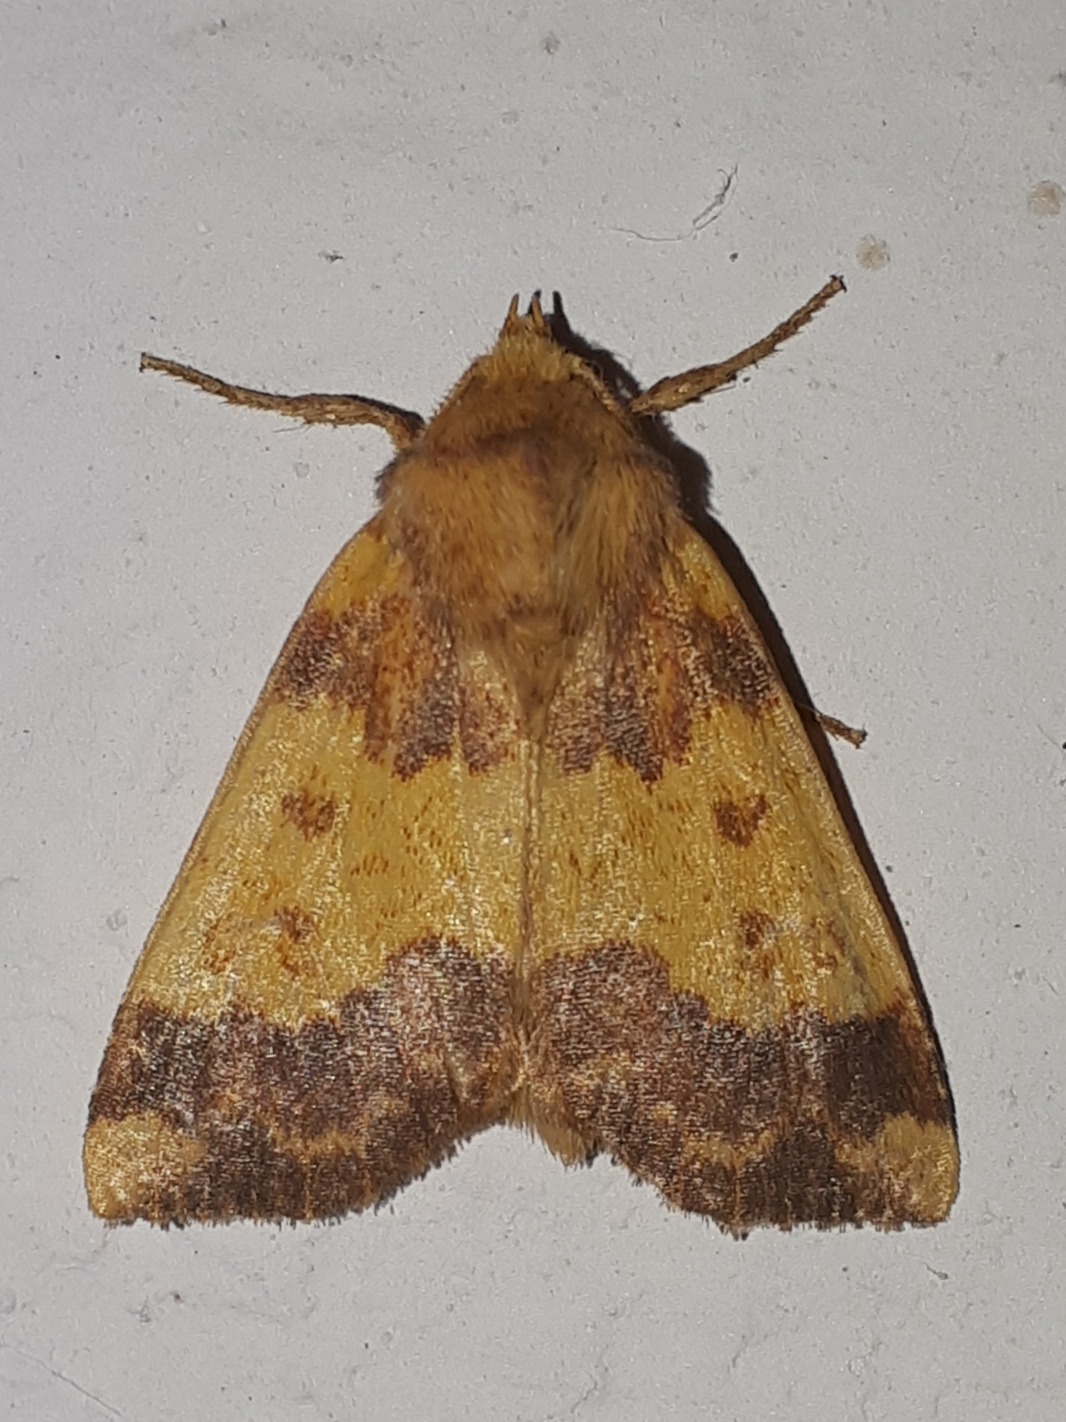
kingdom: Animalia
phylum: Arthropoda
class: Insecta
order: Lepidoptera
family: Noctuidae
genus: Tiliacea
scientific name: Tiliacea aurago
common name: Guldugle
